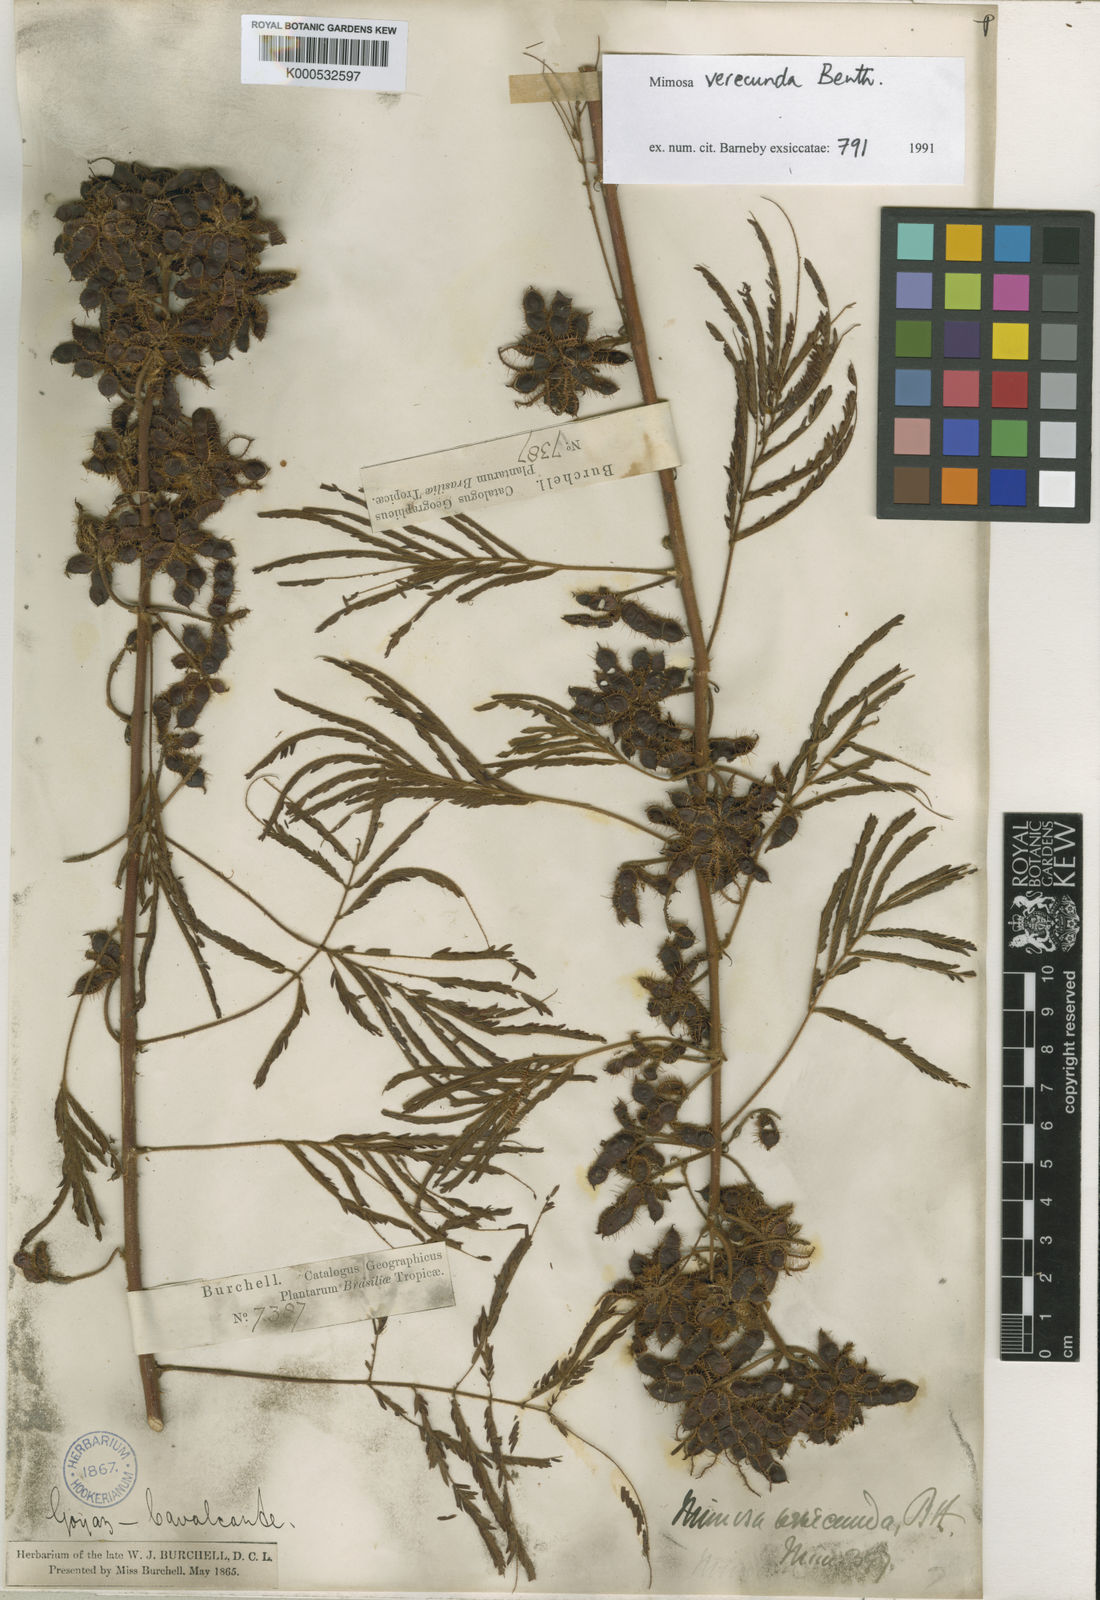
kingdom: Plantae
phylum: Tracheophyta
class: Magnoliopsida
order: Fabales
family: Fabaceae
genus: Mimosa
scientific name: Mimosa verecunda
